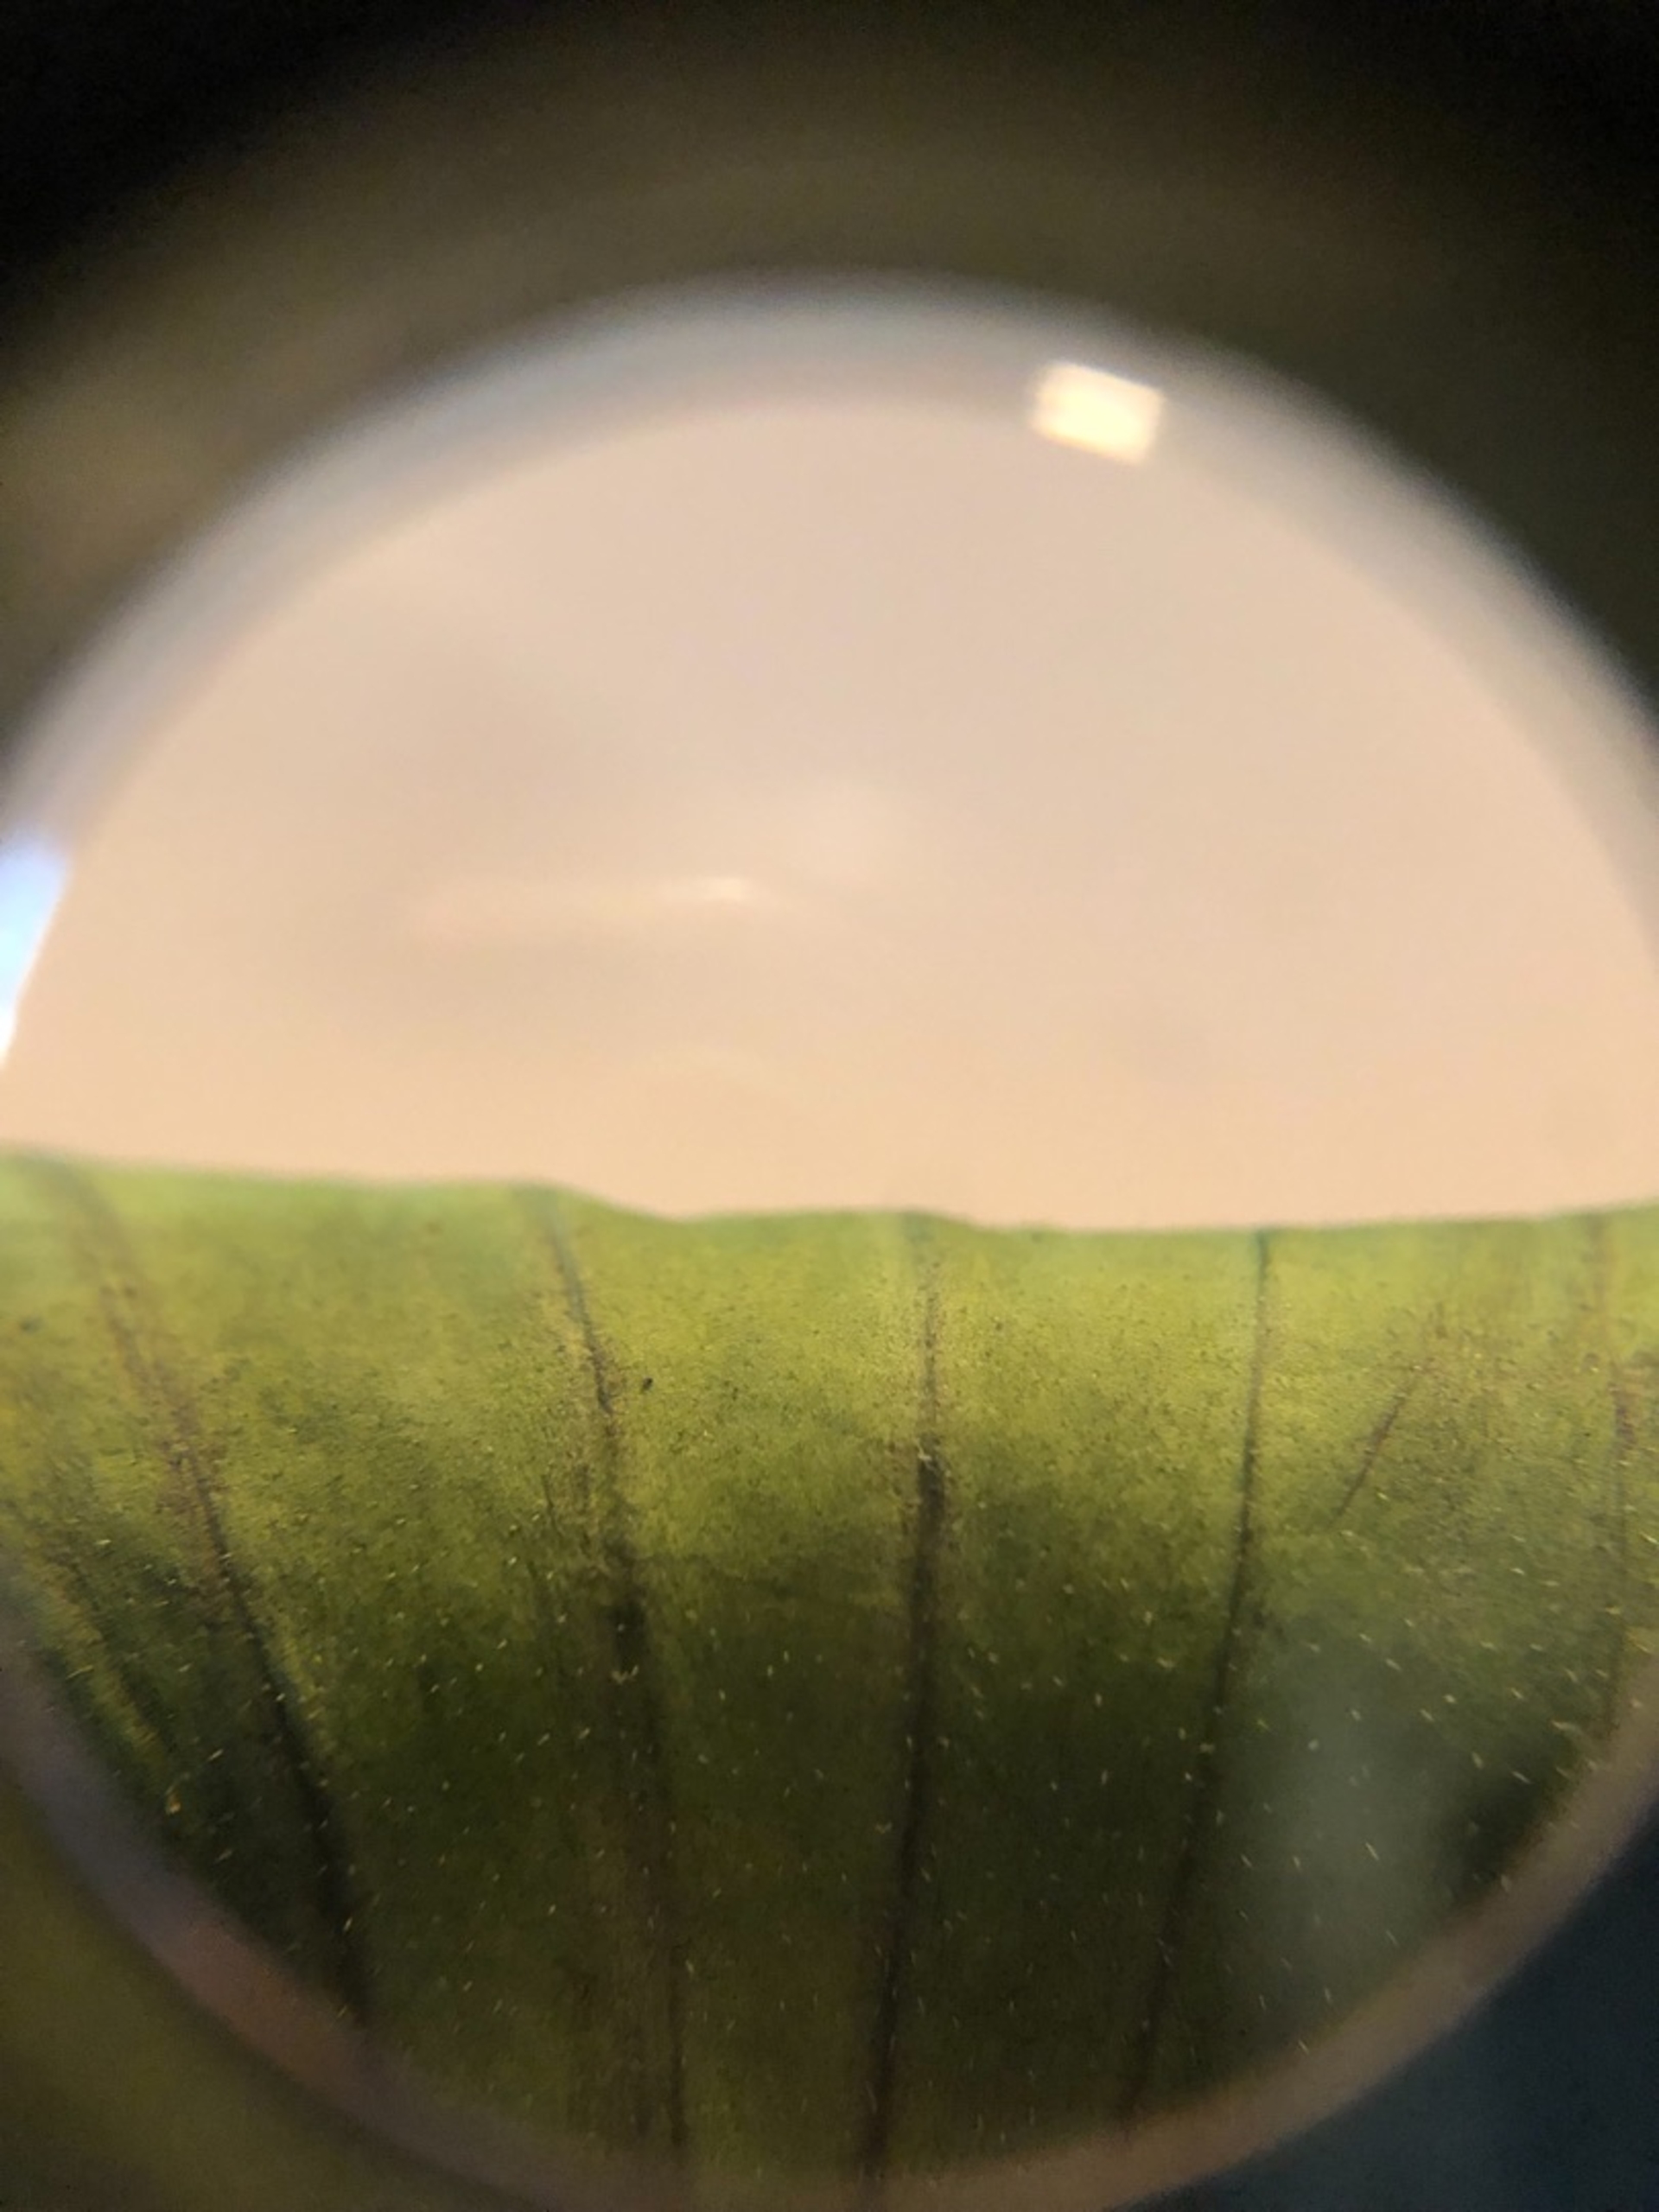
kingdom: Plantae
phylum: Tracheophyta
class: Magnoliopsida
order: Lamiales
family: Plantaginaceae
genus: Plantago
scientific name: Plantago major
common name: Glat vejbred
